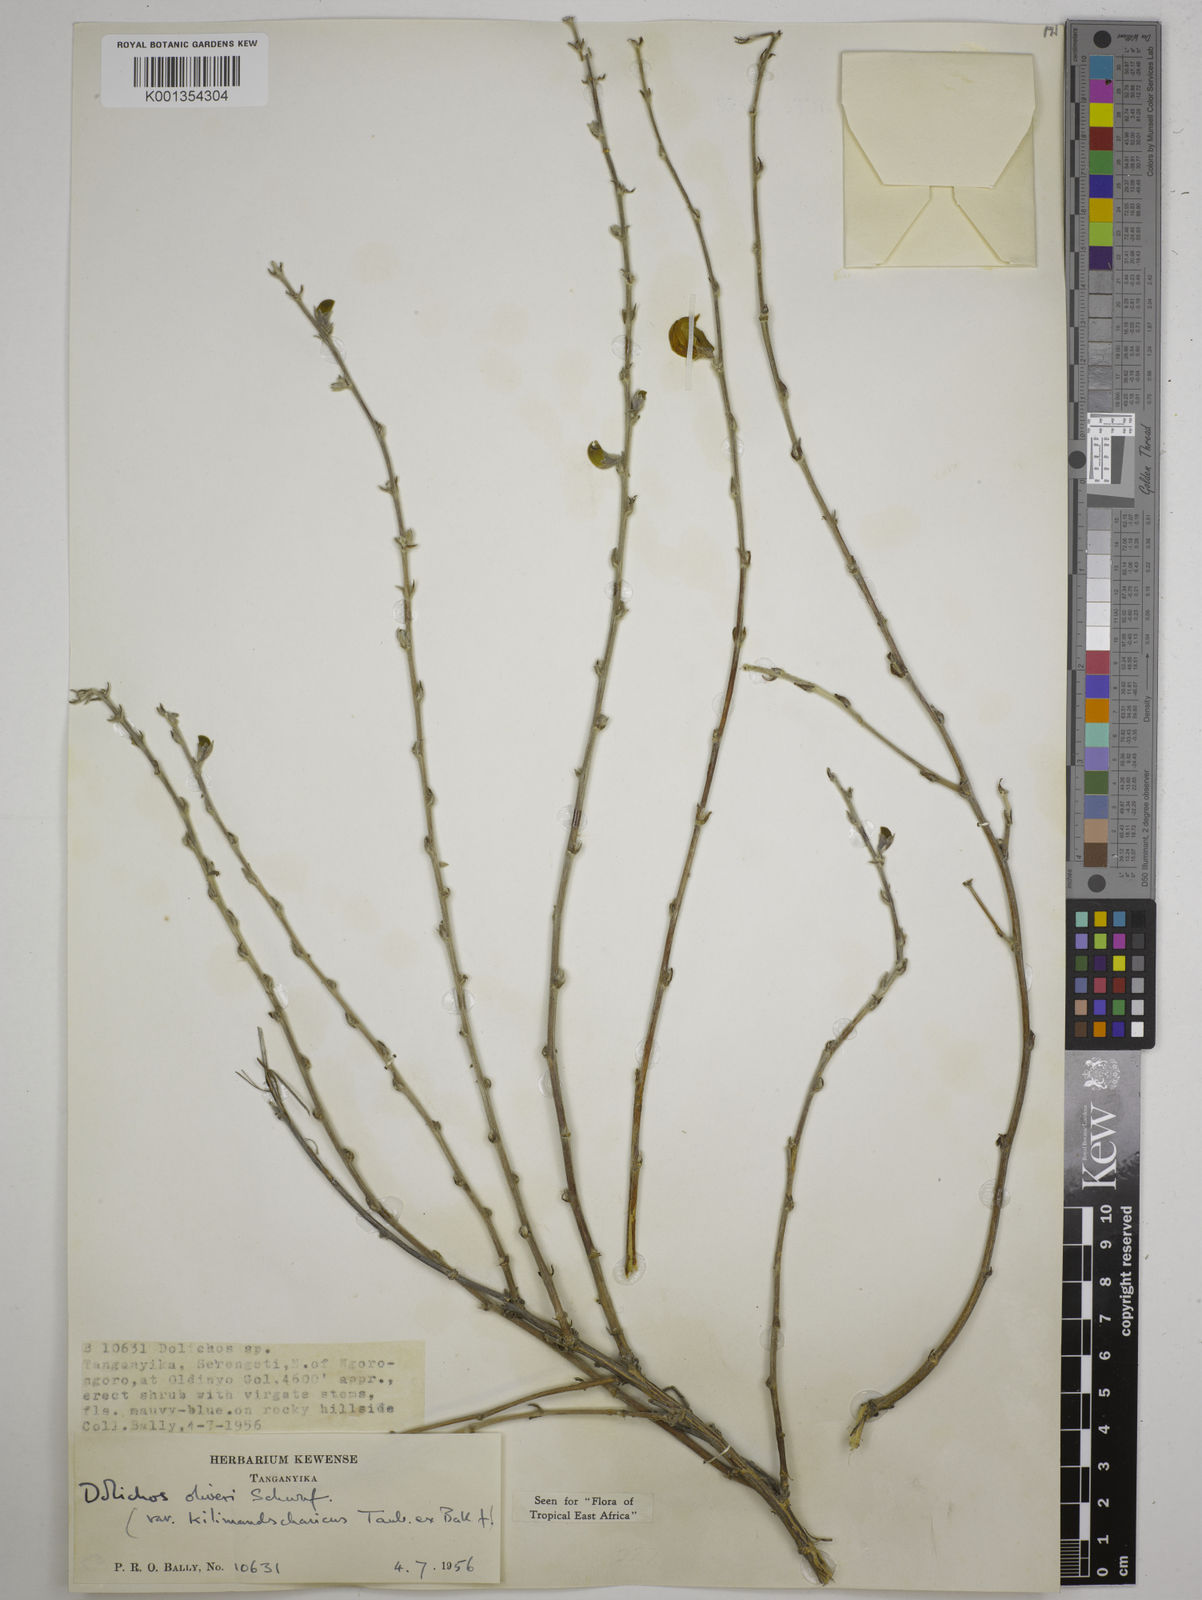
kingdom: Plantae
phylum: Tracheophyta
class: Magnoliopsida
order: Fabales
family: Fabaceae
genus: Dolichos
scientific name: Dolichos oliveri
